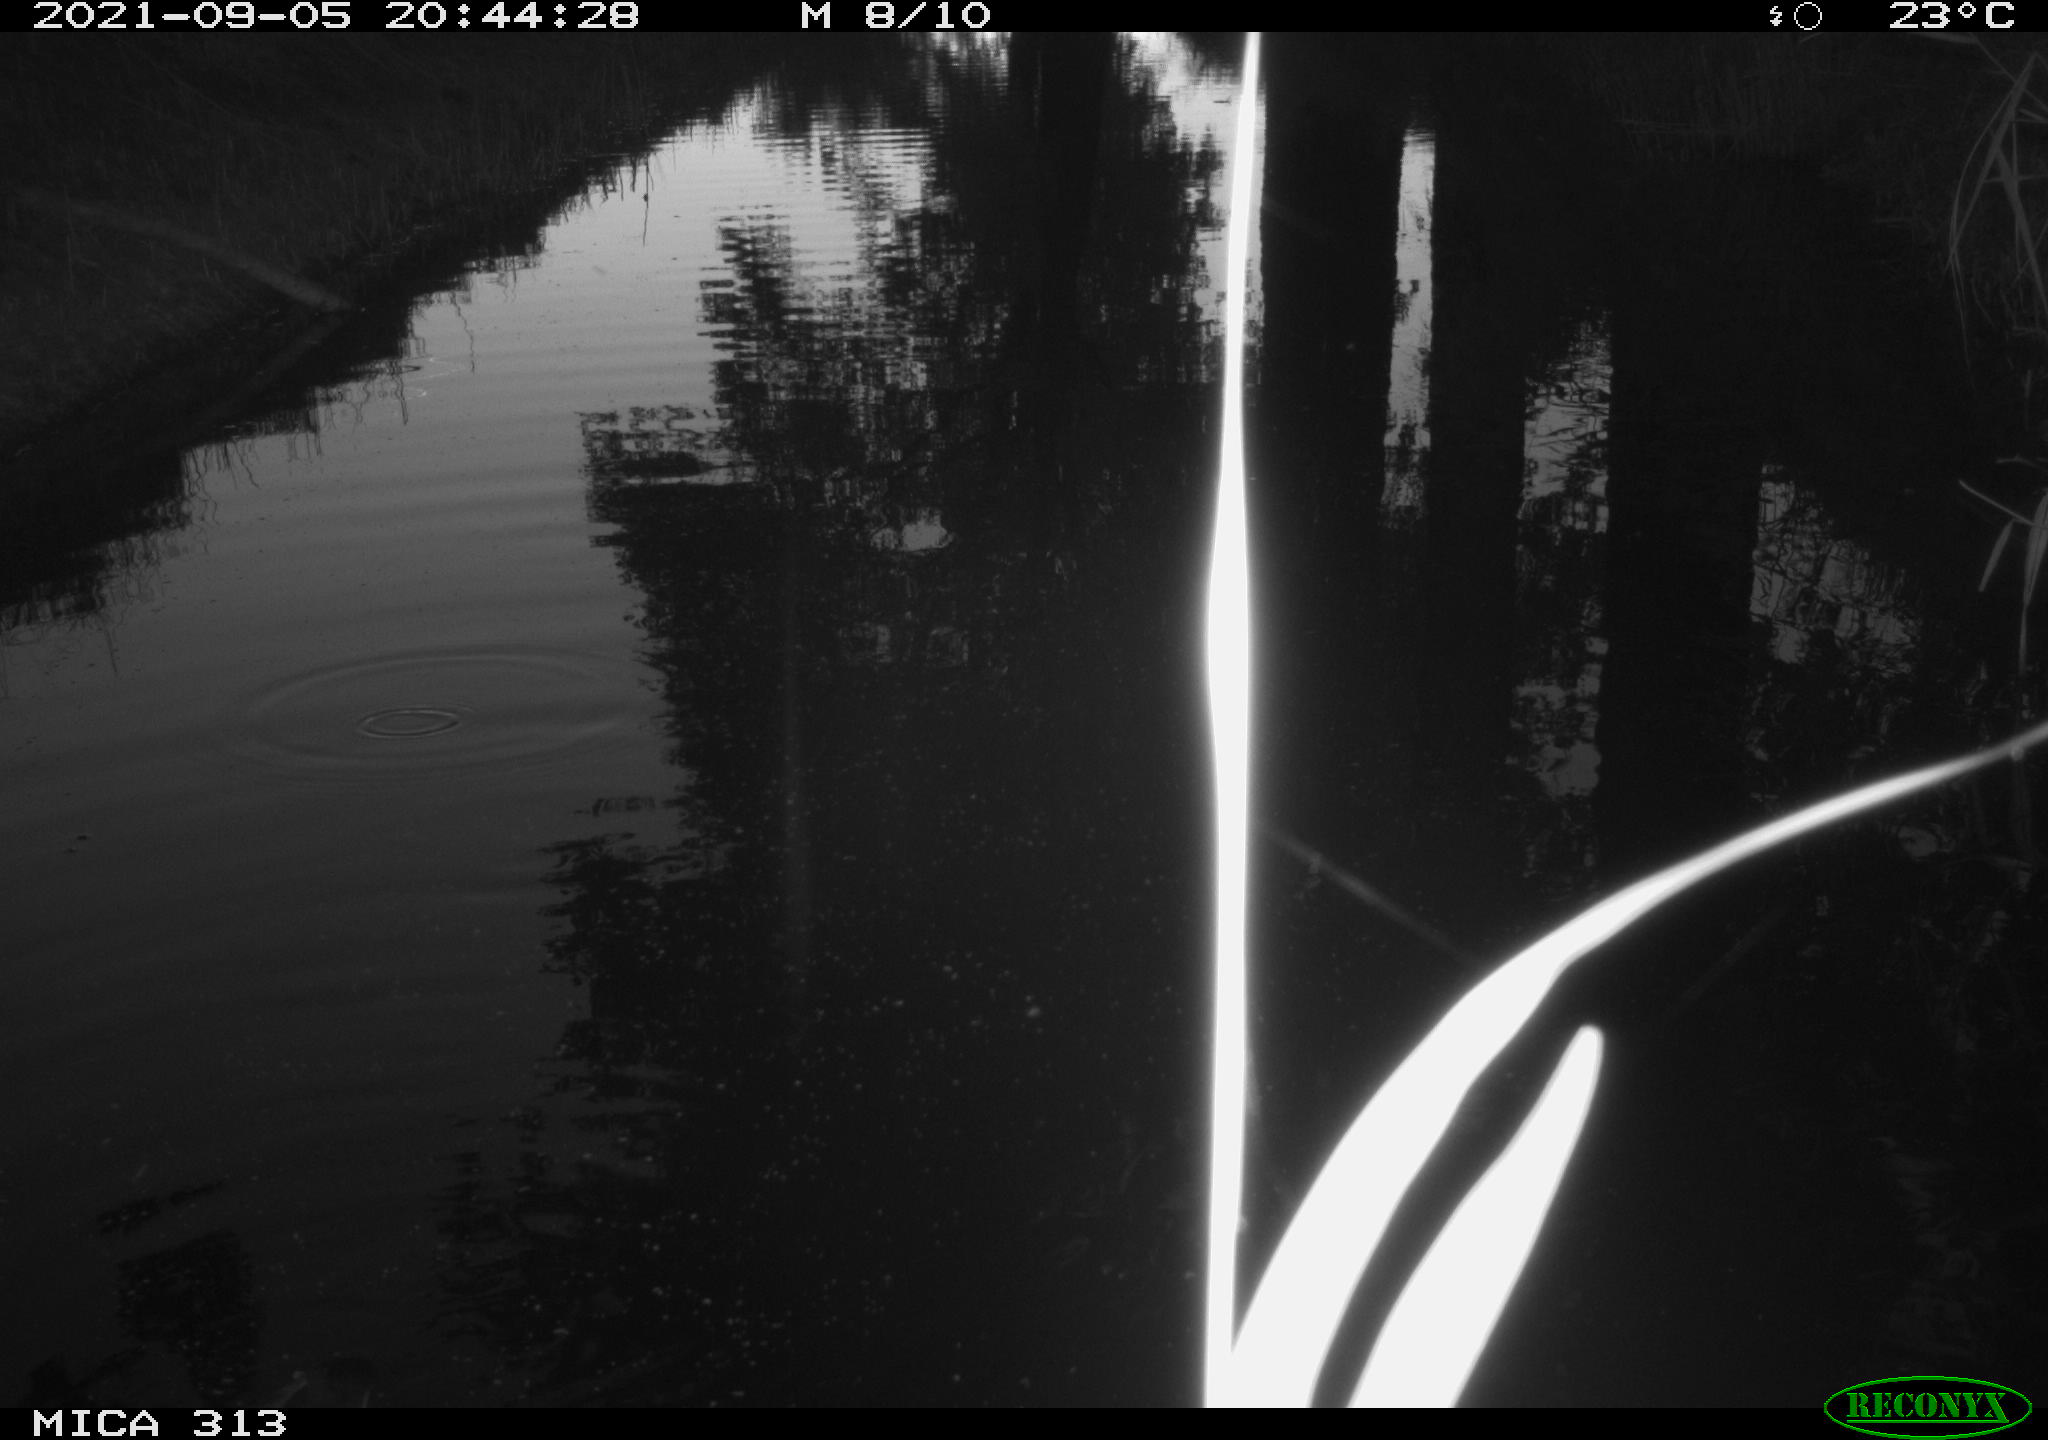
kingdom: Animalia
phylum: Chordata
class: Aves
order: Gruiformes
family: Rallidae
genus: Gallinula
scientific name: Gallinula chloropus
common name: Common moorhen
